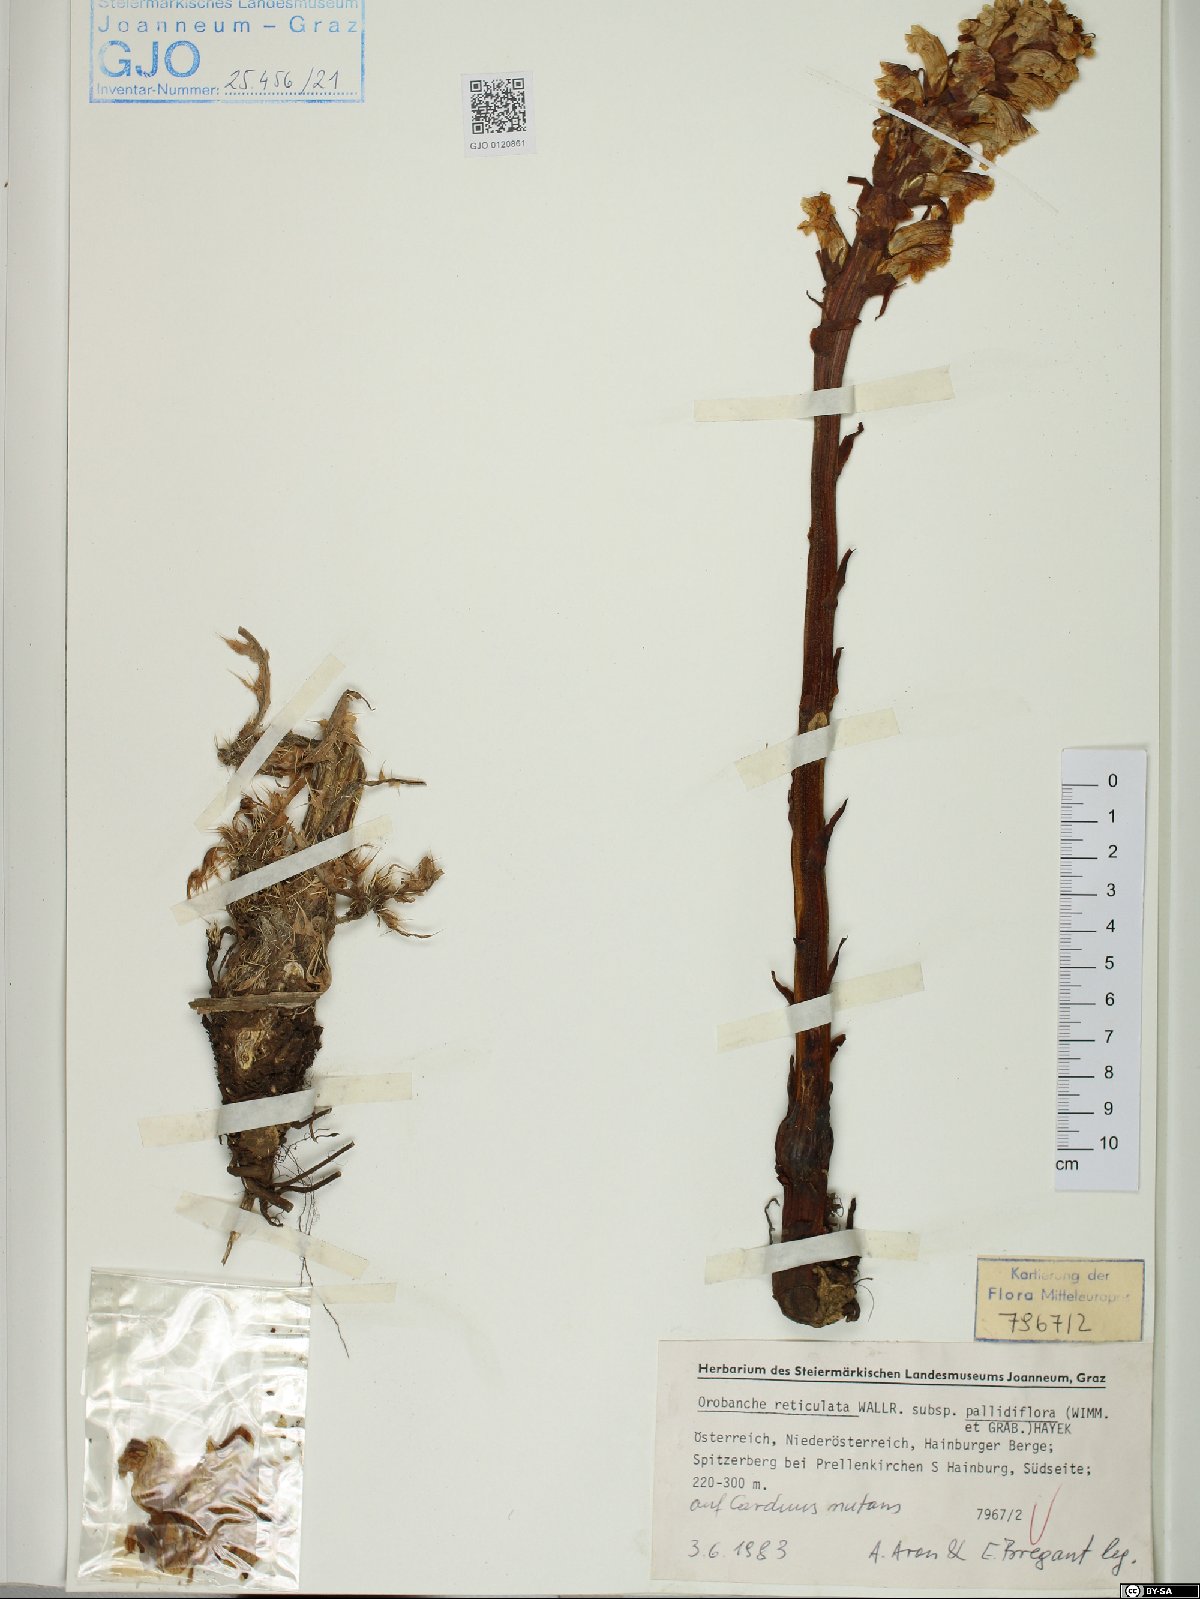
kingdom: Plantae
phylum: Tracheophyta
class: Magnoliopsida
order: Lamiales
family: Orobanchaceae
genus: Orobanche
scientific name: Orobanche reticulata
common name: Thistle broomrape
